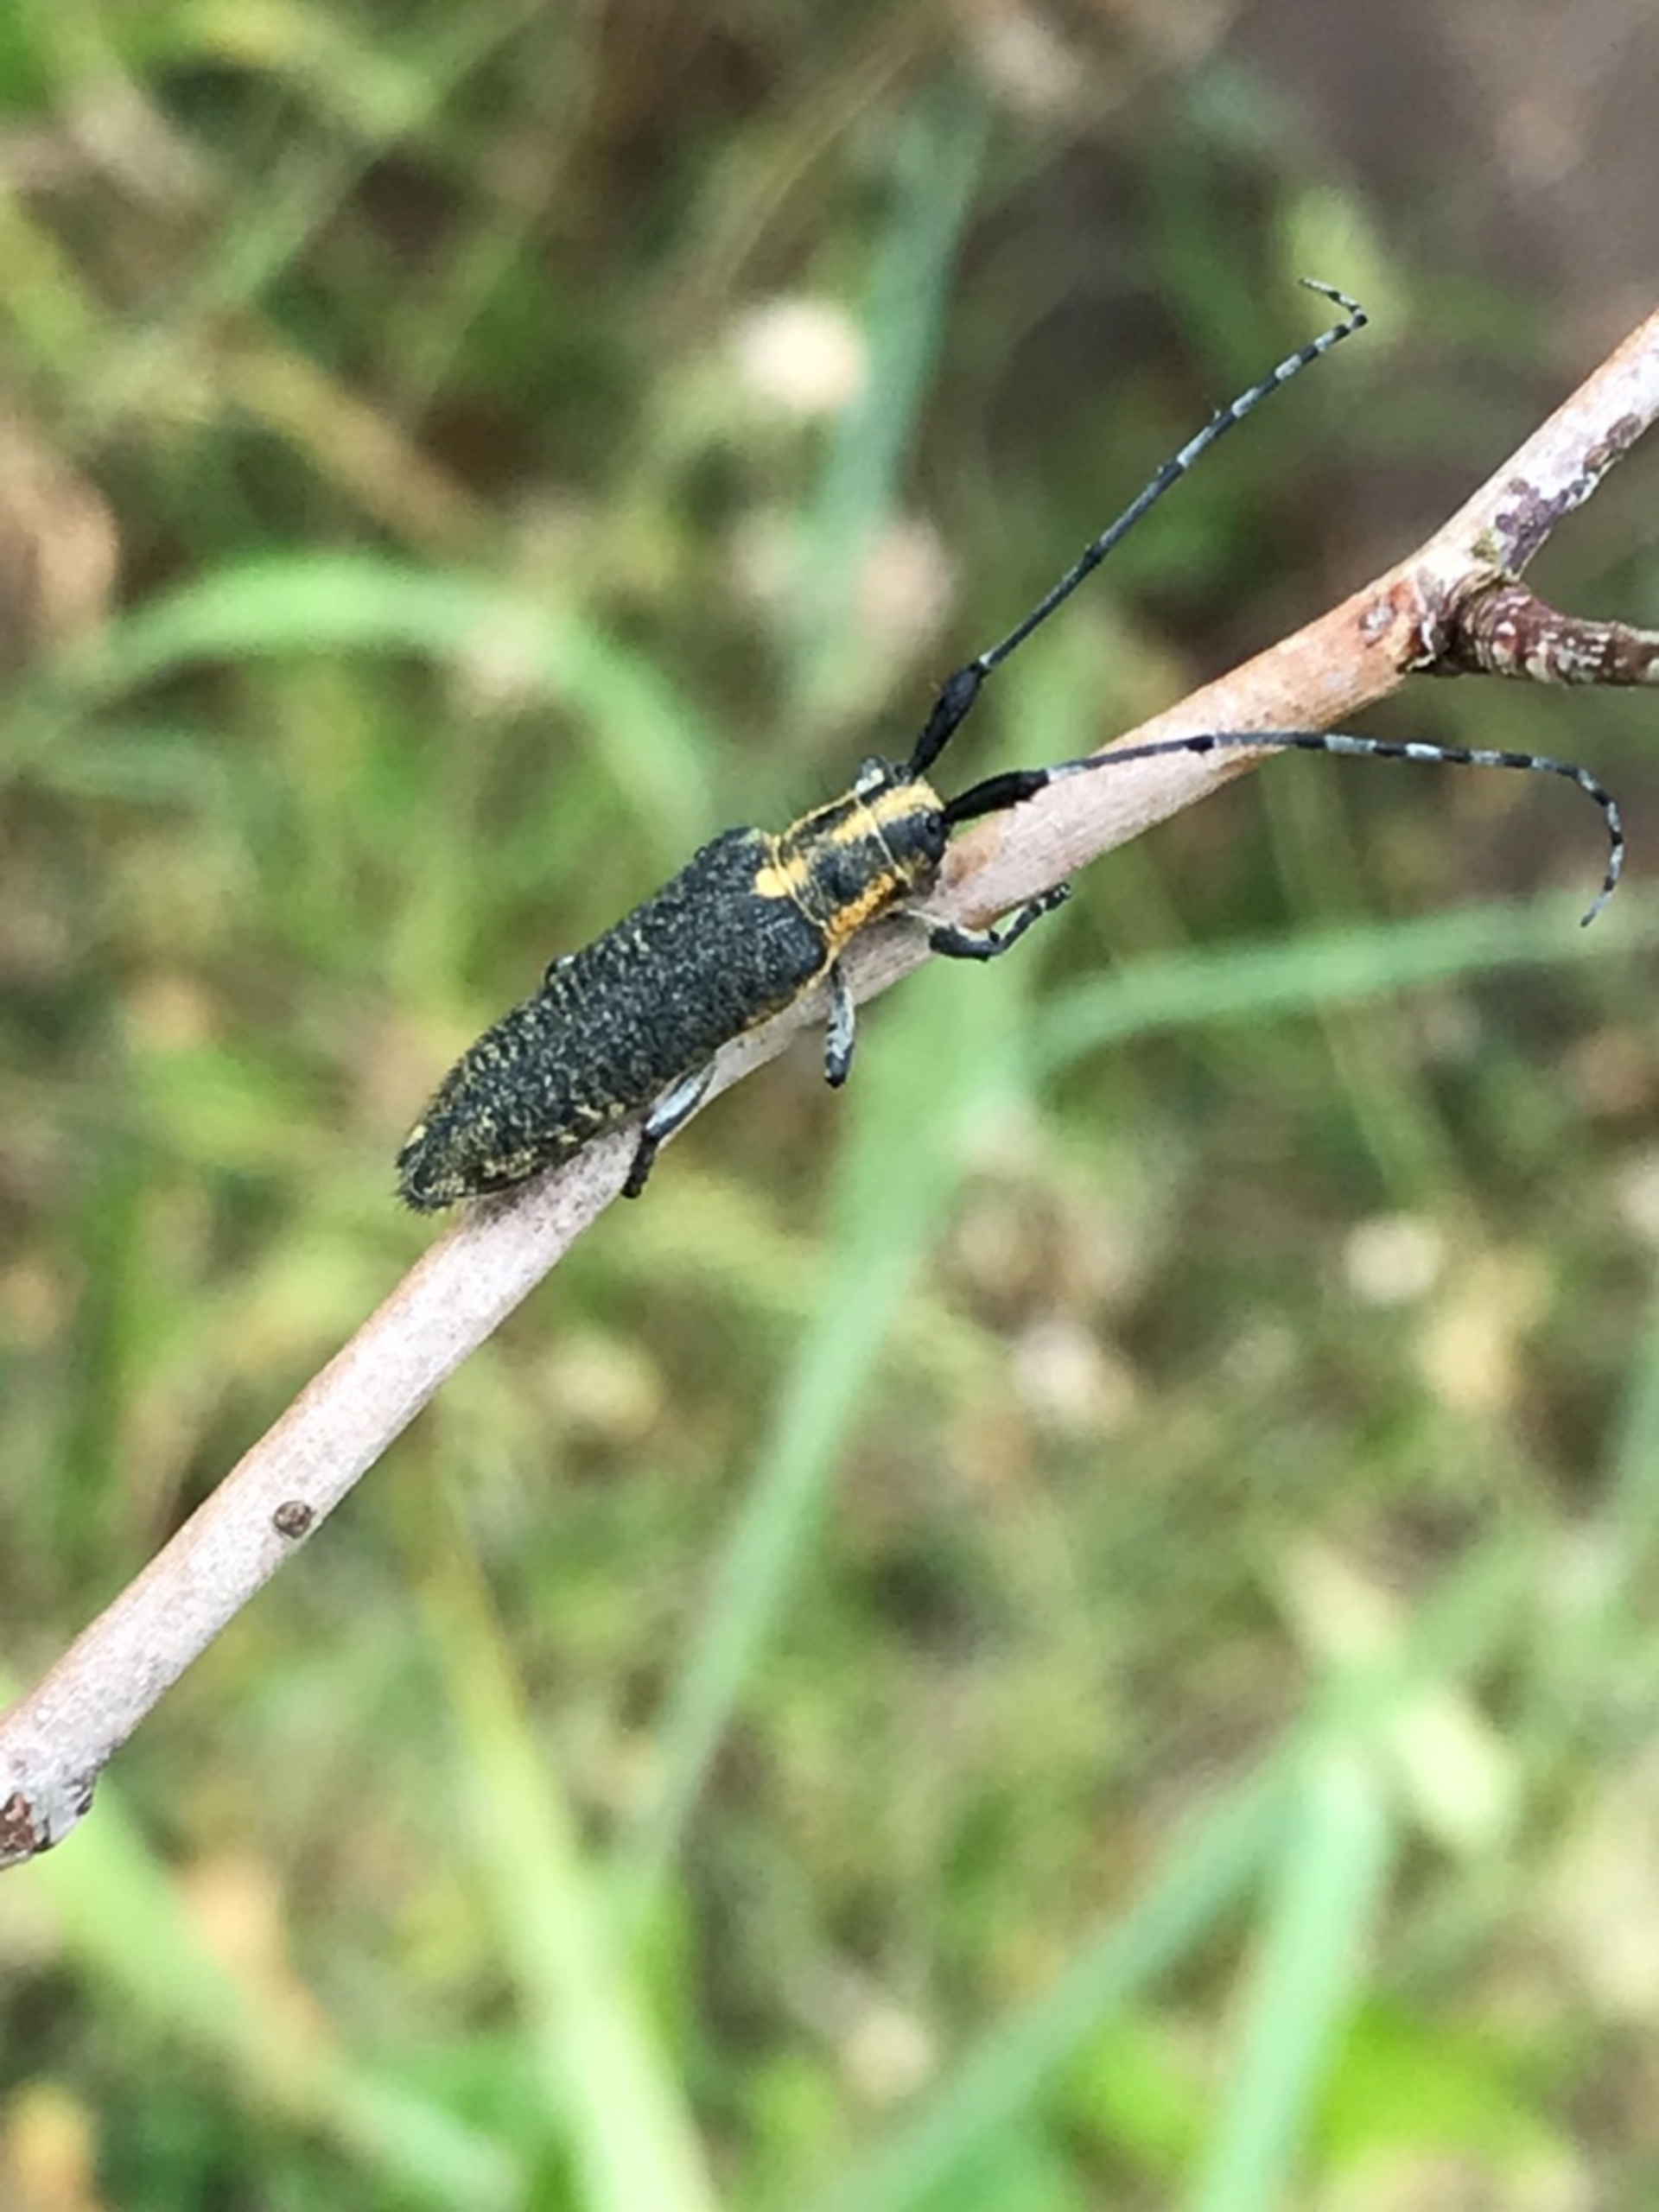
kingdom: Animalia
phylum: Arthropoda
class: Insecta
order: Coleoptera
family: Cerambycidae
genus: Agapanthia
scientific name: Agapanthia villosoviridescens
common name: Tidselbuk
